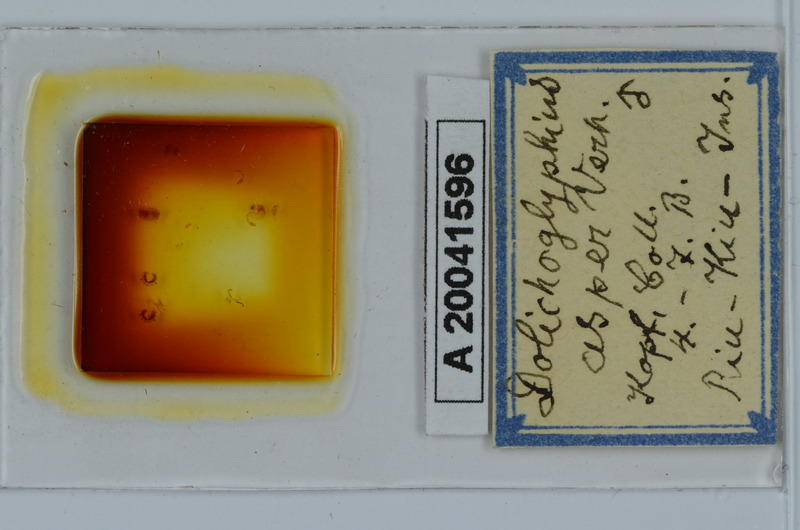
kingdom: Animalia
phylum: Arthropoda
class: Diplopoda
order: Spirostreptida
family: Cambalopsidae
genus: Dolichoglyphius
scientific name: Dolichoglyphius asper
